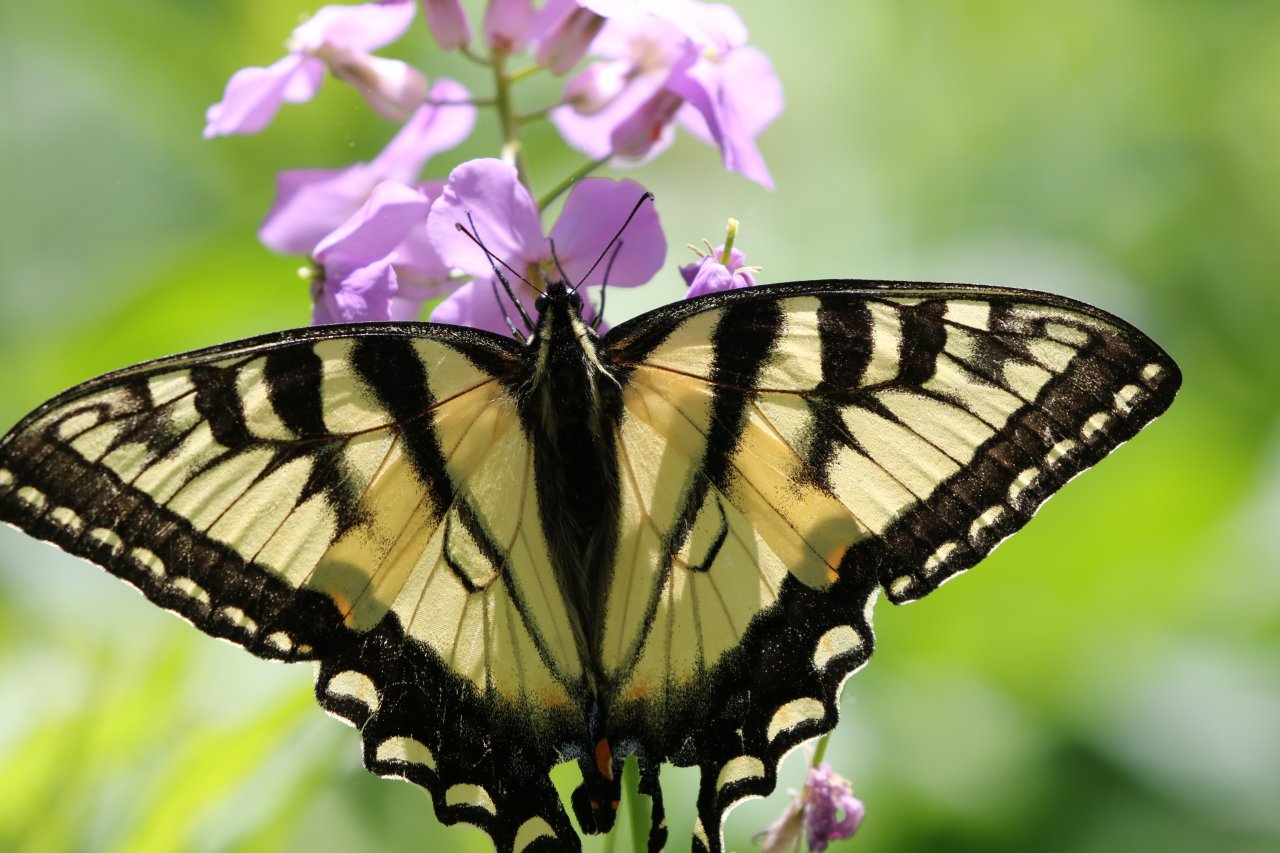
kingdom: Animalia
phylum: Arthropoda
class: Insecta
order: Lepidoptera
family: Papilionidae
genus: Pterourus
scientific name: Pterourus glaucus
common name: Eastern Tiger Swallowtail
